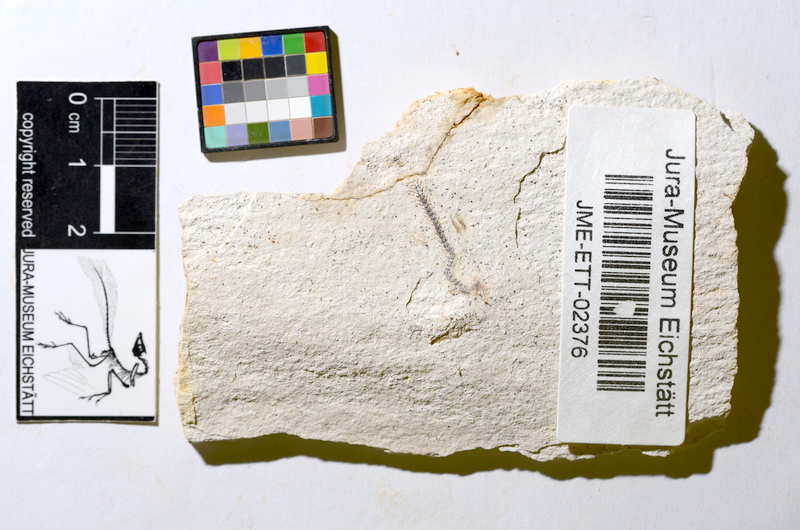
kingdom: Animalia
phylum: Chordata
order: Salmoniformes
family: Orthogonikleithridae
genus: Orthogonikleithrus
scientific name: Orthogonikleithrus hoelli
